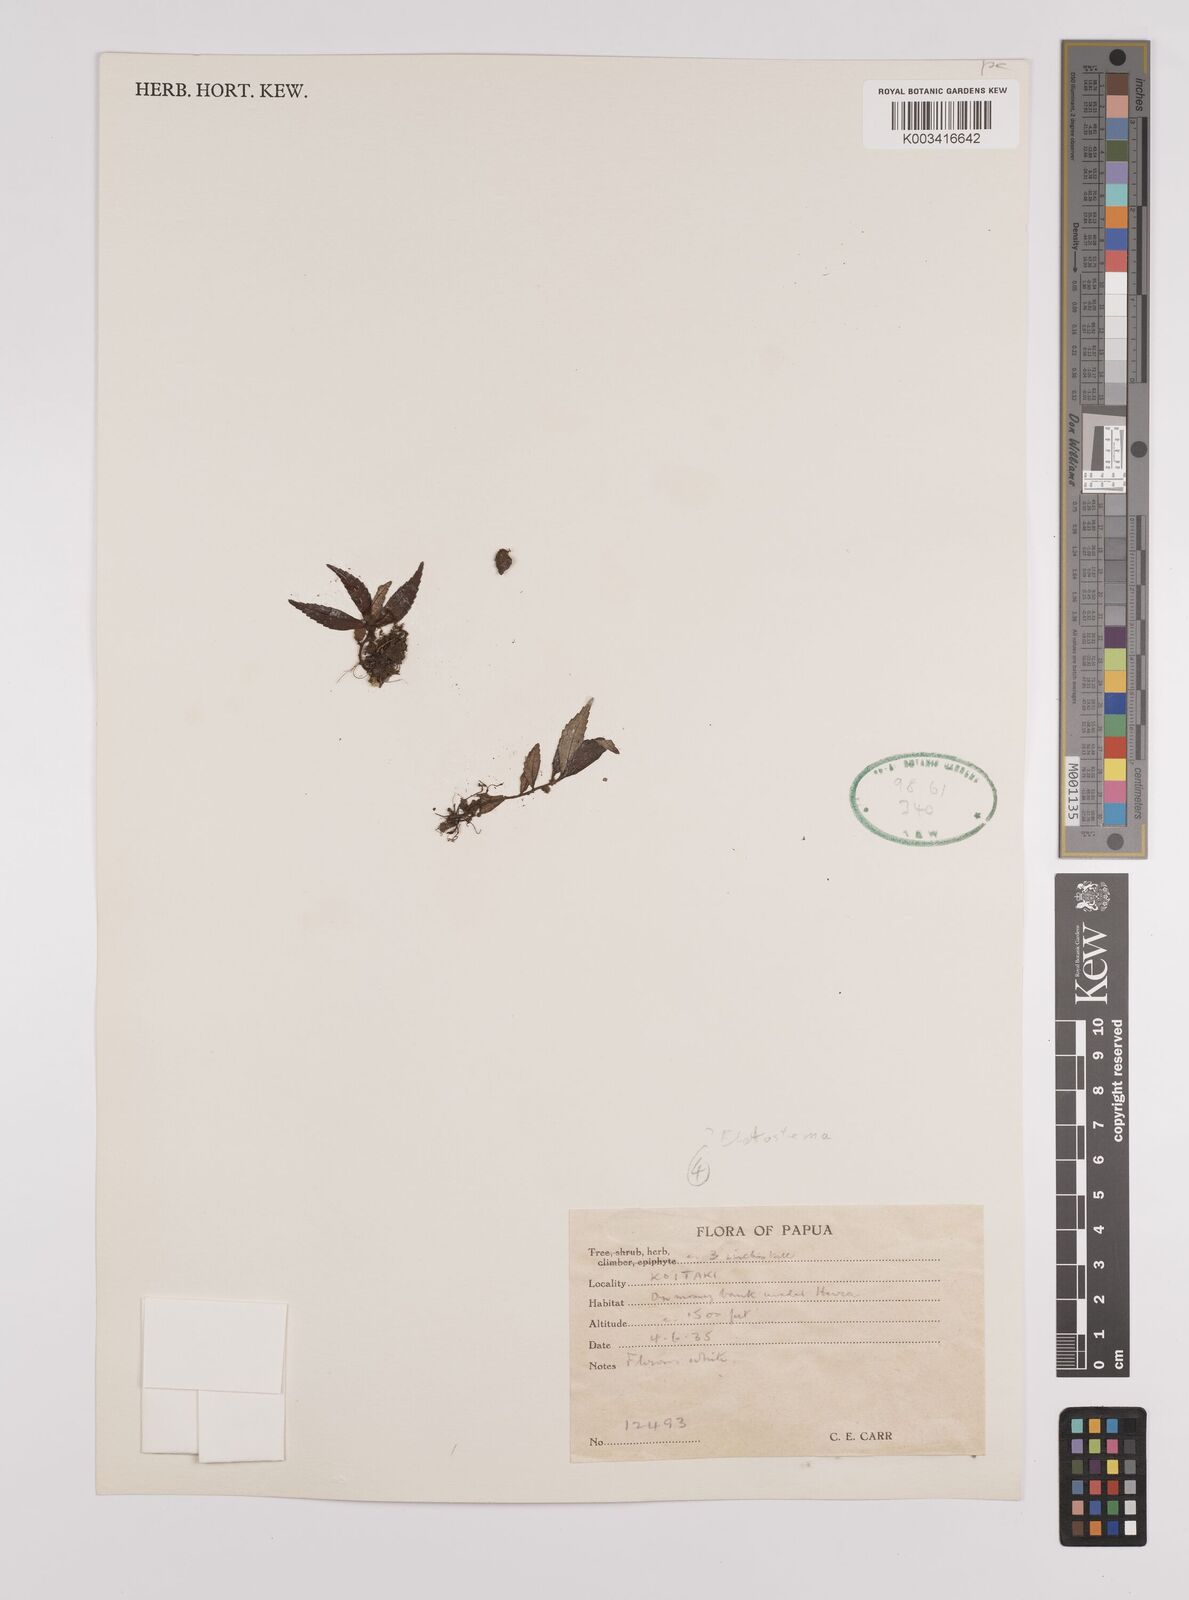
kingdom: Plantae
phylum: Tracheophyta
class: Magnoliopsida
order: Rosales
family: Urticaceae
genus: Elatostema
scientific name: Elatostema
